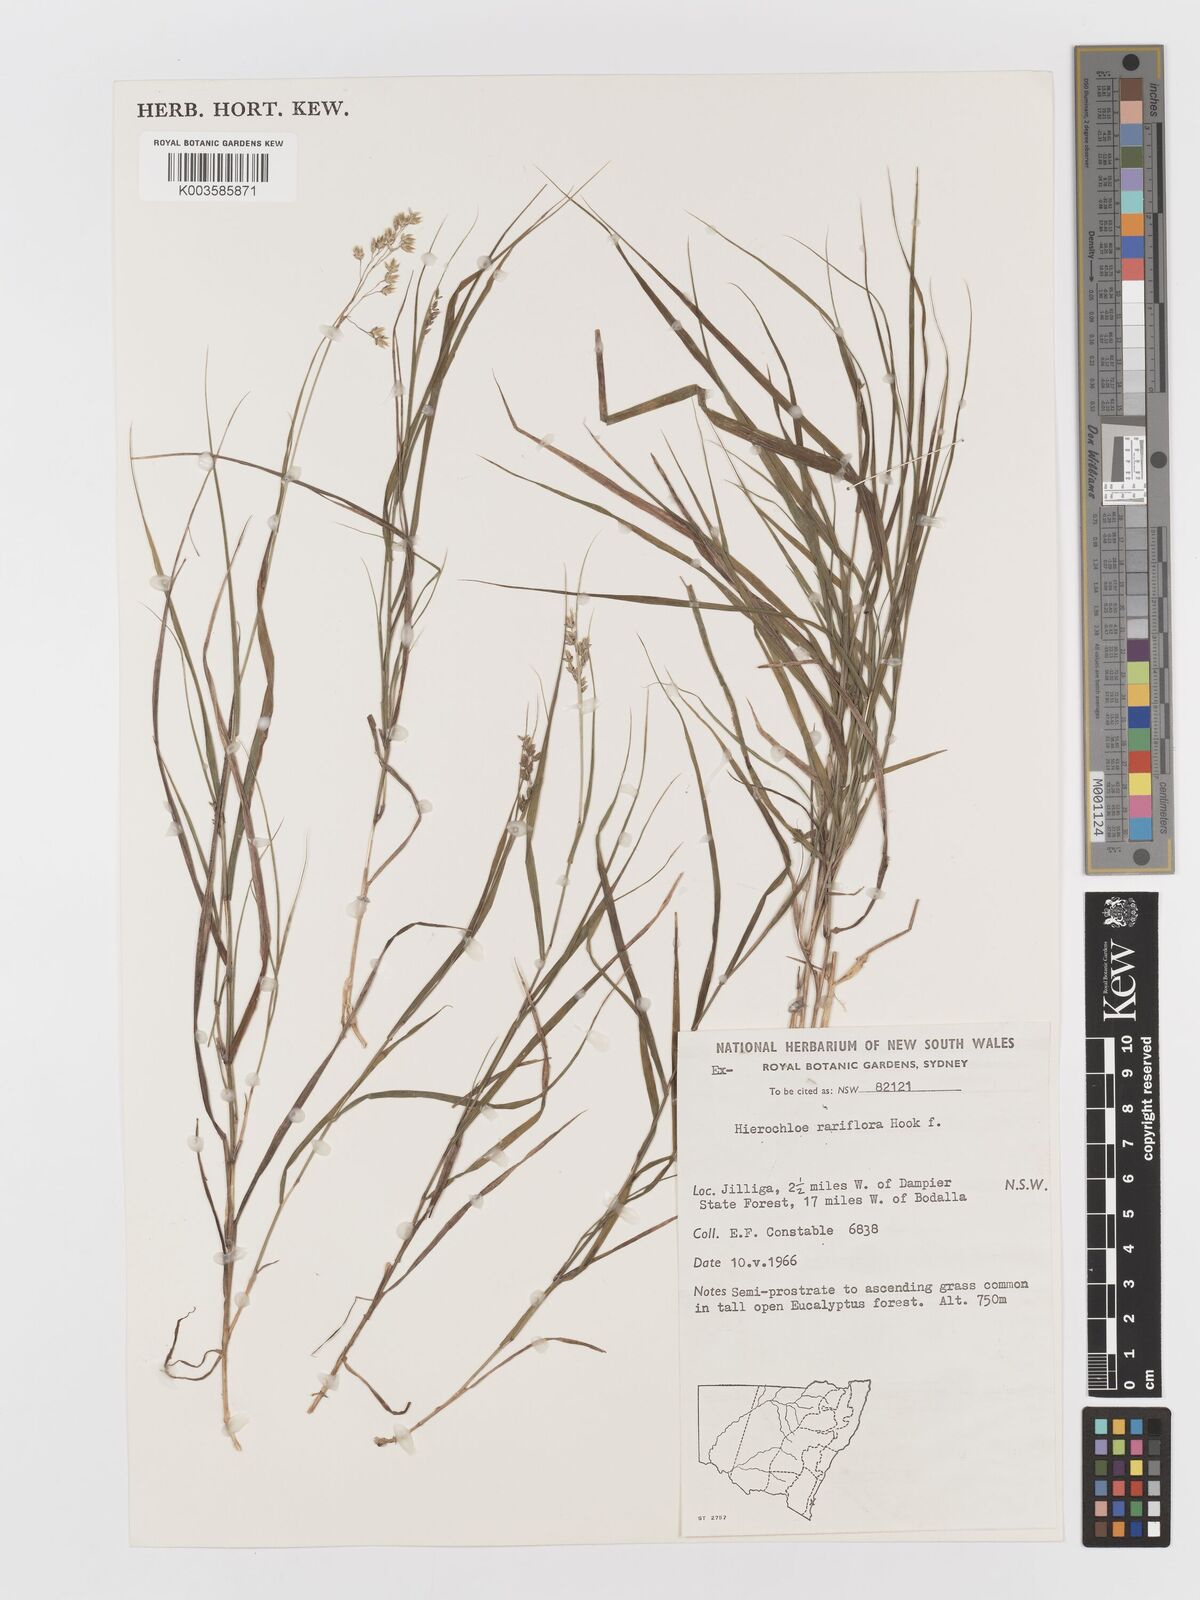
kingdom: Plantae
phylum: Tracheophyta
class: Liliopsida
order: Poales
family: Poaceae
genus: Anthoxanthum
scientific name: Anthoxanthum rariflorum
